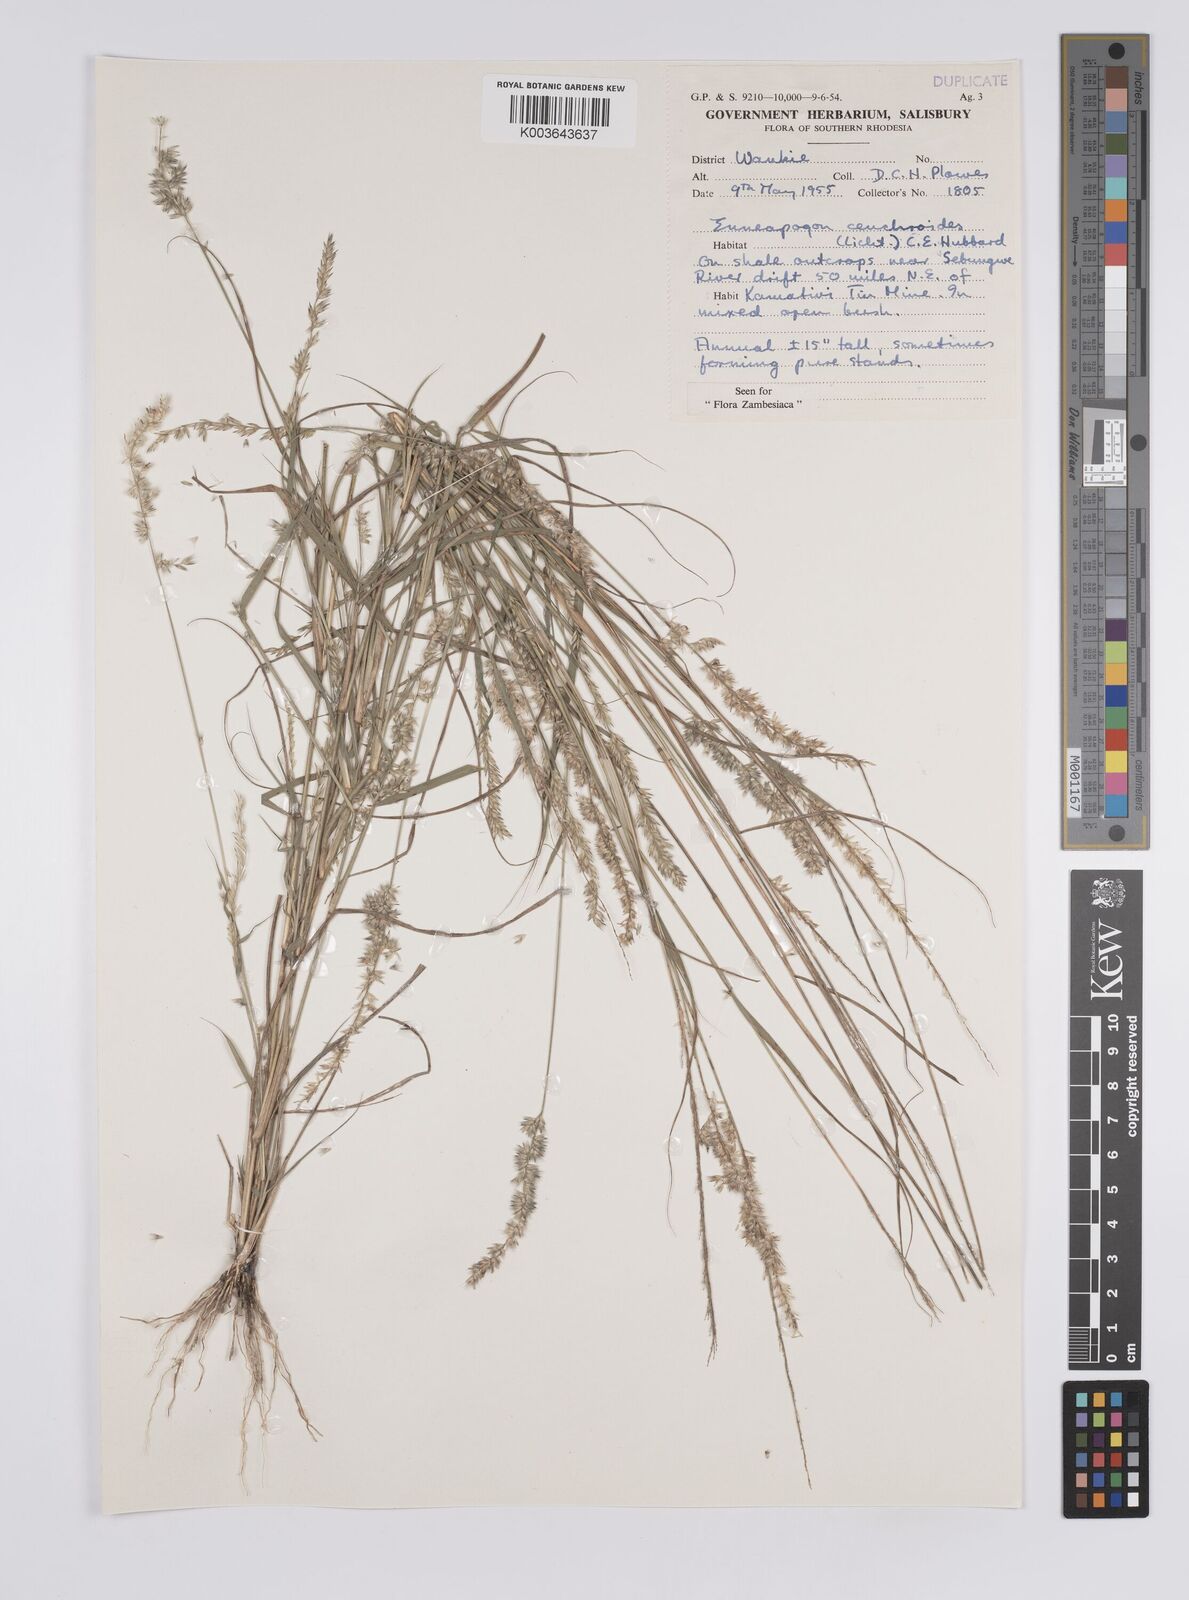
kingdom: Plantae
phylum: Tracheophyta
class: Liliopsida
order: Poales
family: Poaceae
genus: Enneapogon
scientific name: Enneapogon cenchroides
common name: Soft feather pappusgrass
